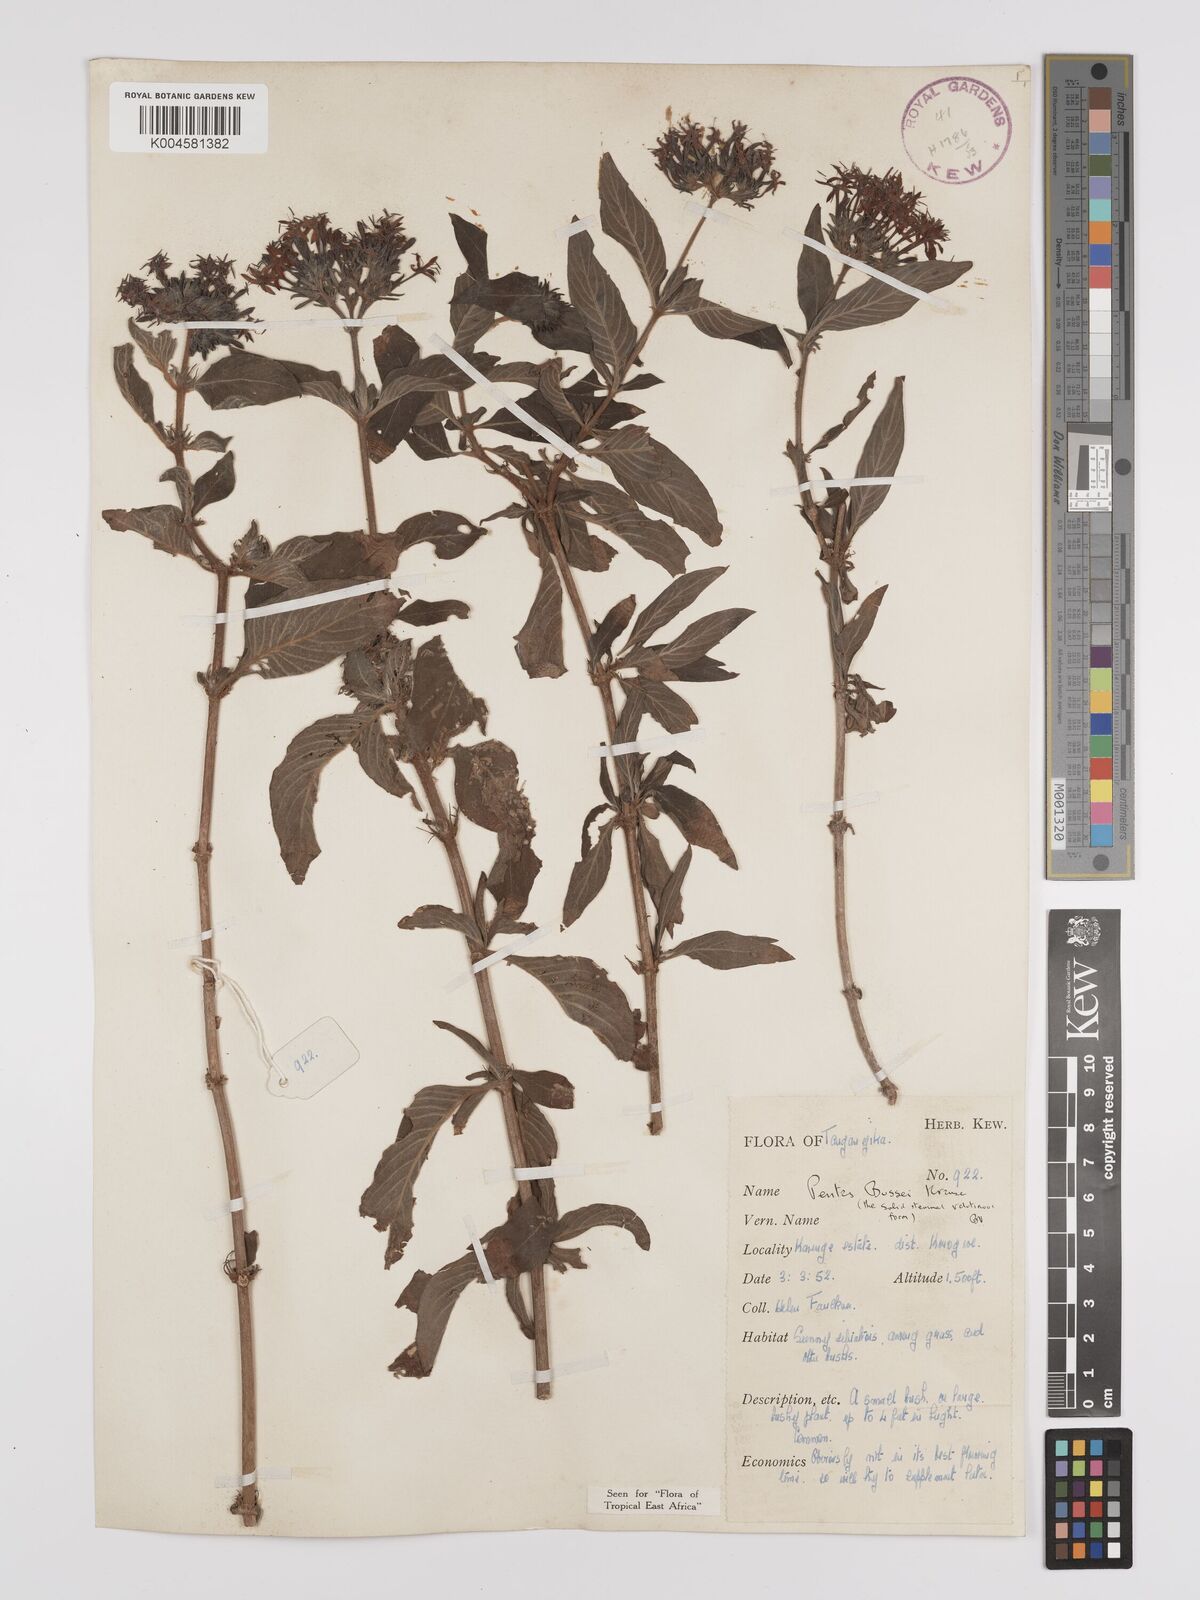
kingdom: Plantae
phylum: Tracheophyta
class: Magnoliopsida
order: Gentianales
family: Rubiaceae
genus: Rhodopentas
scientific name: Rhodopentas bussei
